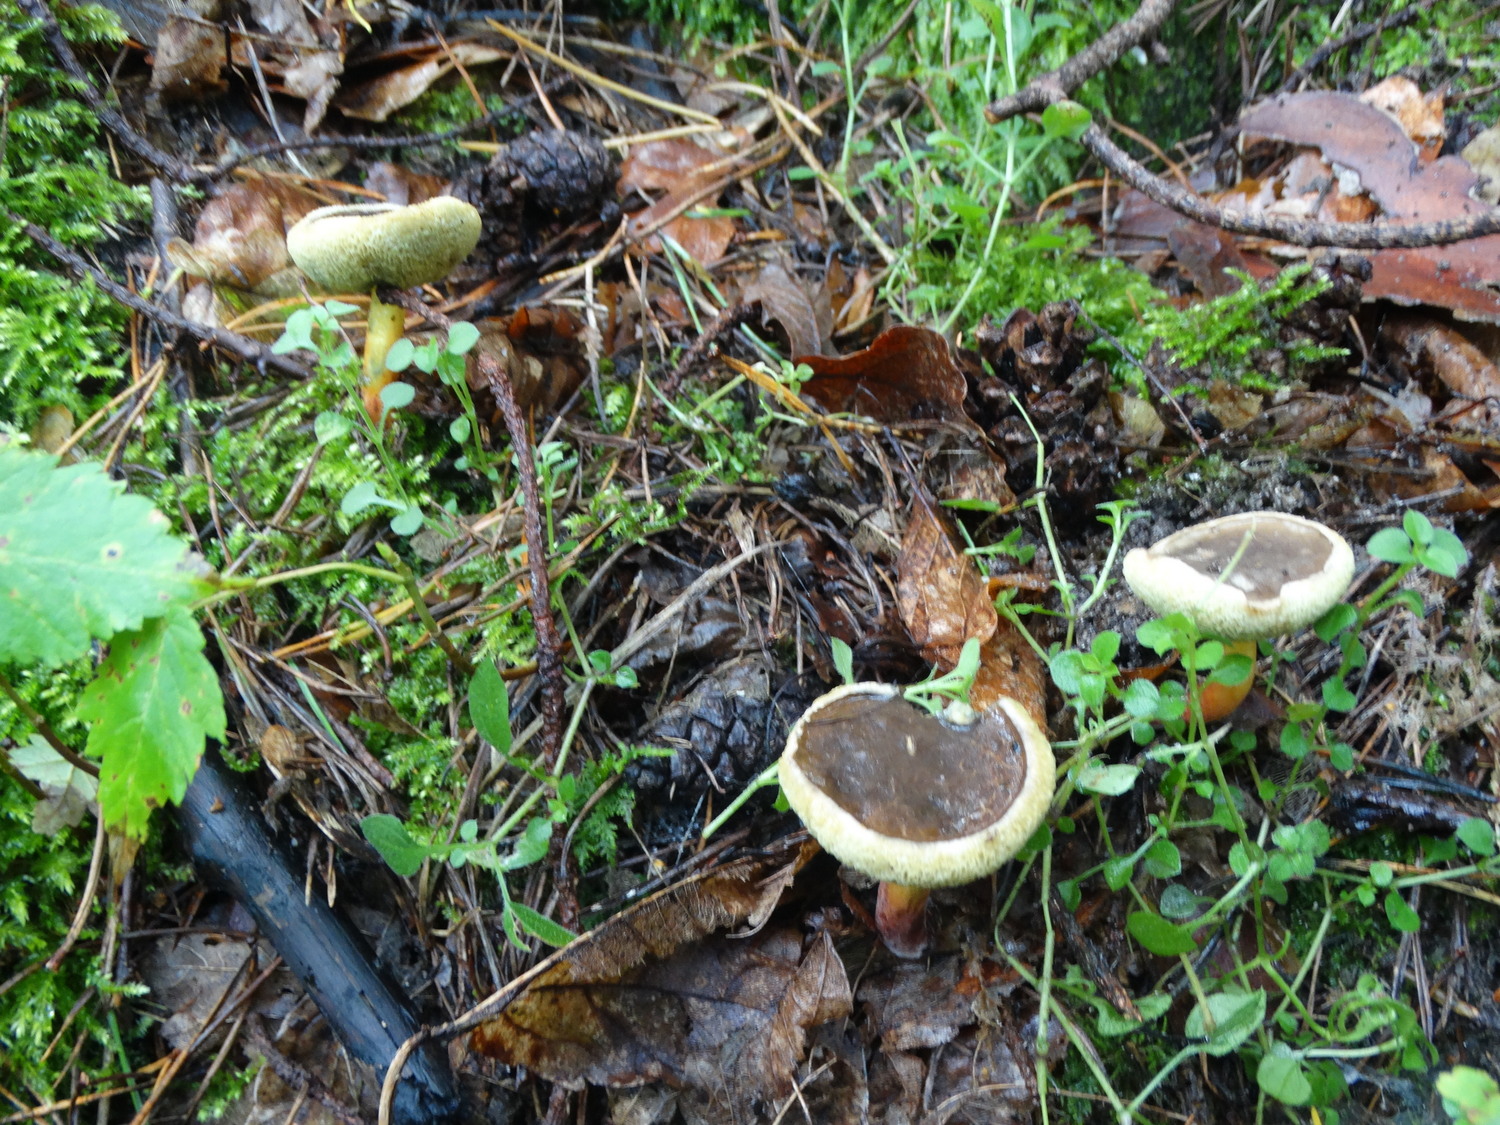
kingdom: Fungi
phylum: Basidiomycota
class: Agaricomycetes
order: Boletales
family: Boletaceae
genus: Xerocomellus
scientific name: Xerocomellus cisalpinus
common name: finsprukken rørhat
